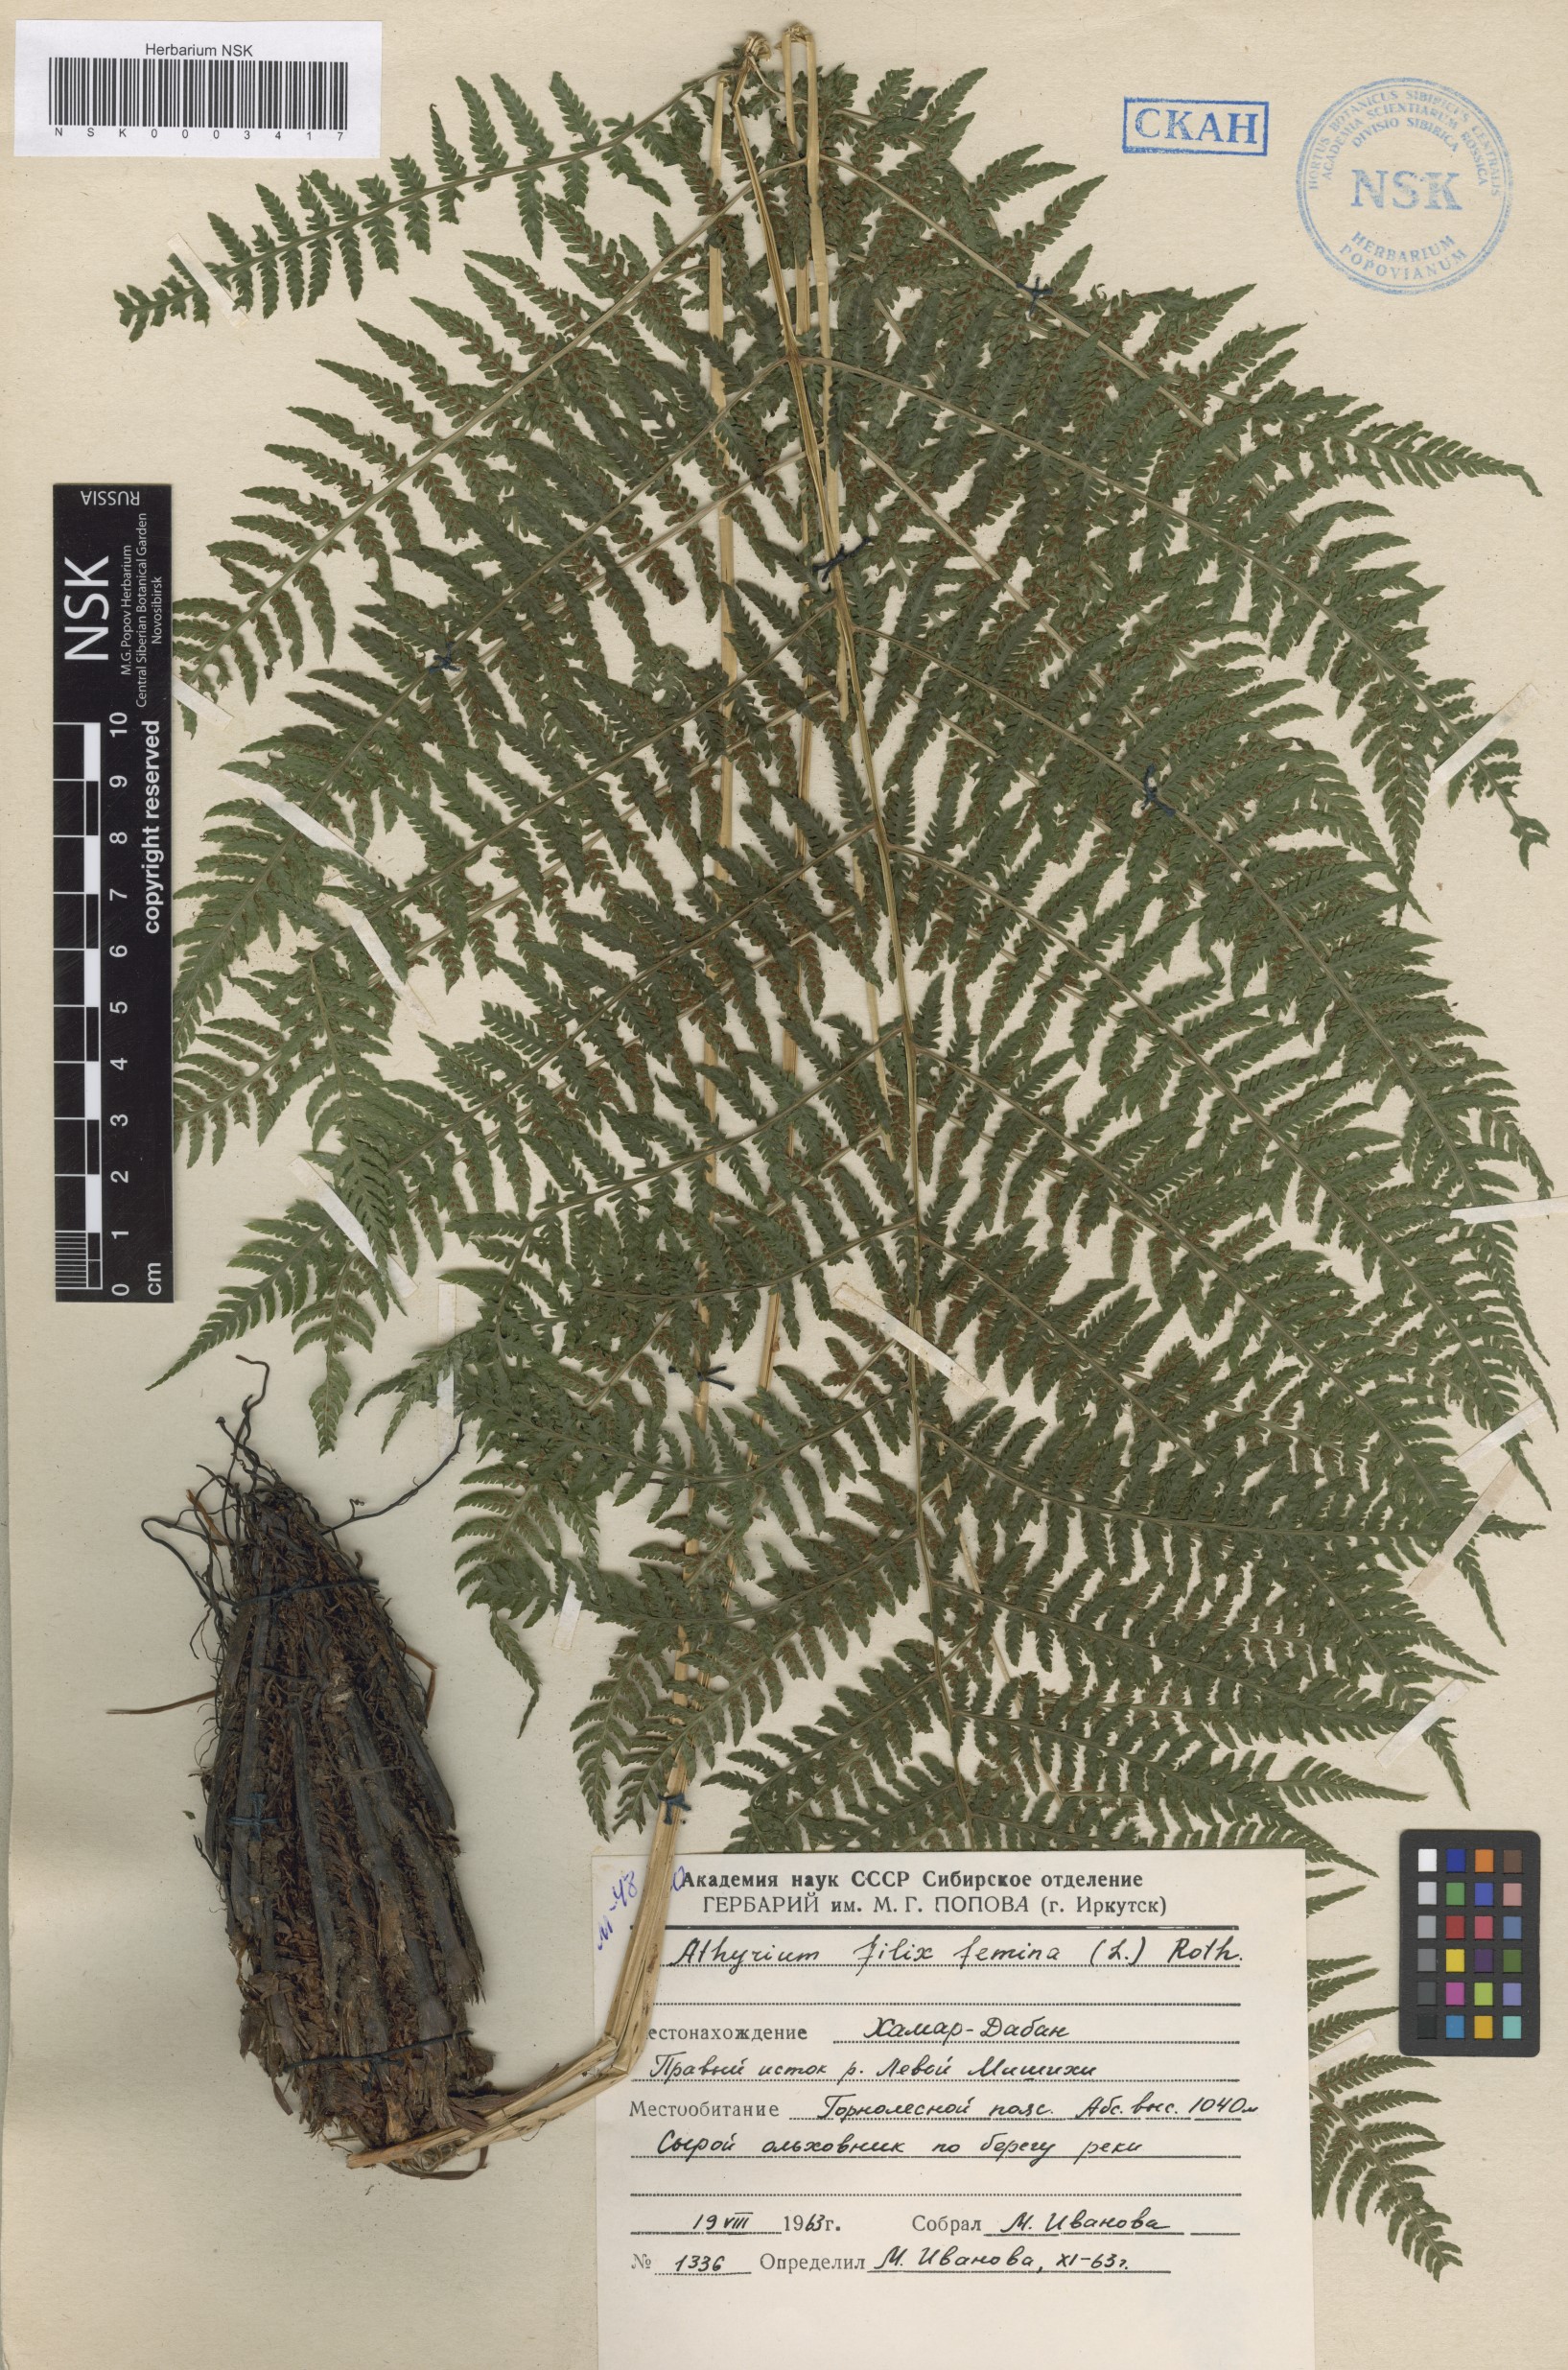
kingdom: Plantae
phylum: Tracheophyta
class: Polypodiopsida
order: Polypodiales
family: Athyriaceae
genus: Athyrium
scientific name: Athyrium filix-femina
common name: Lady fern
